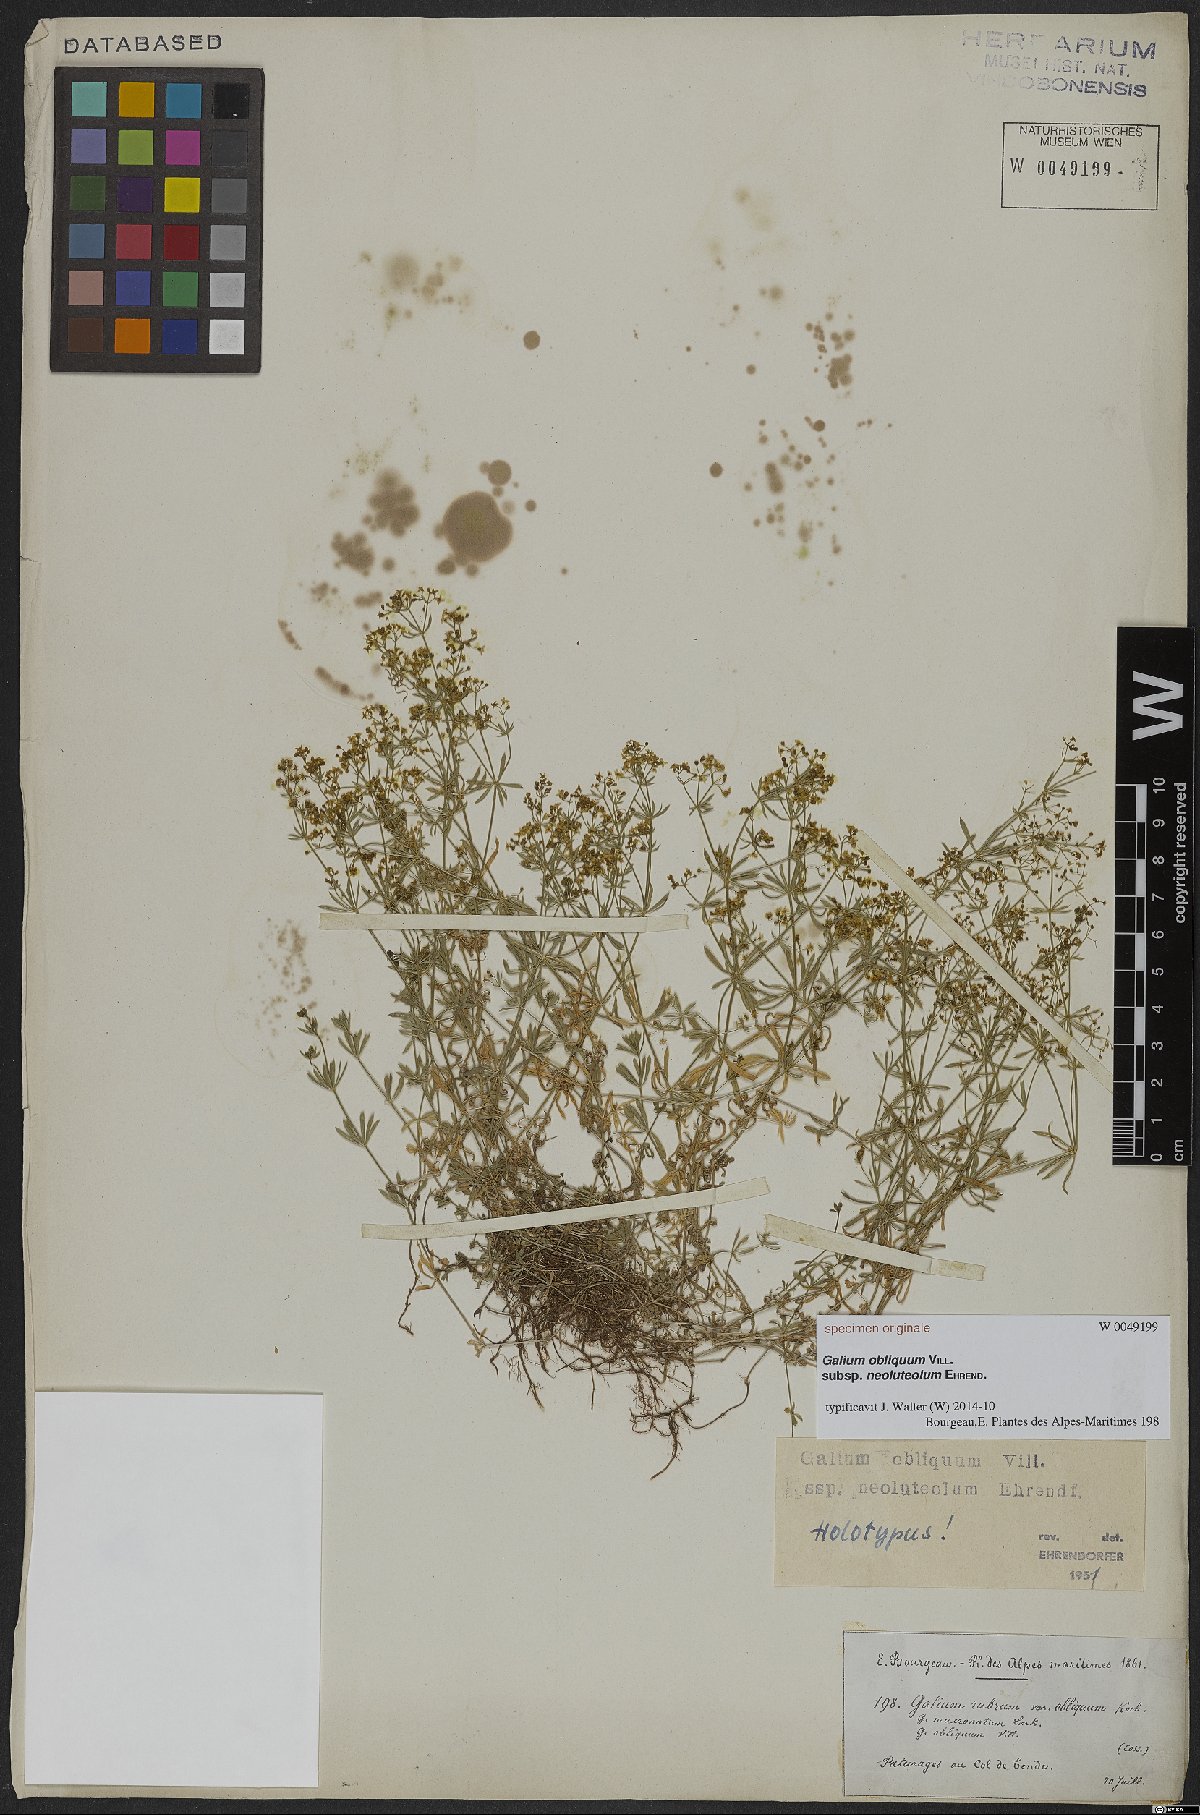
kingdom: Plantae
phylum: Tracheophyta
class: Magnoliopsida
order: Gentianales
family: Rubiaceae
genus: Galium
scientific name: Galium obliquum
